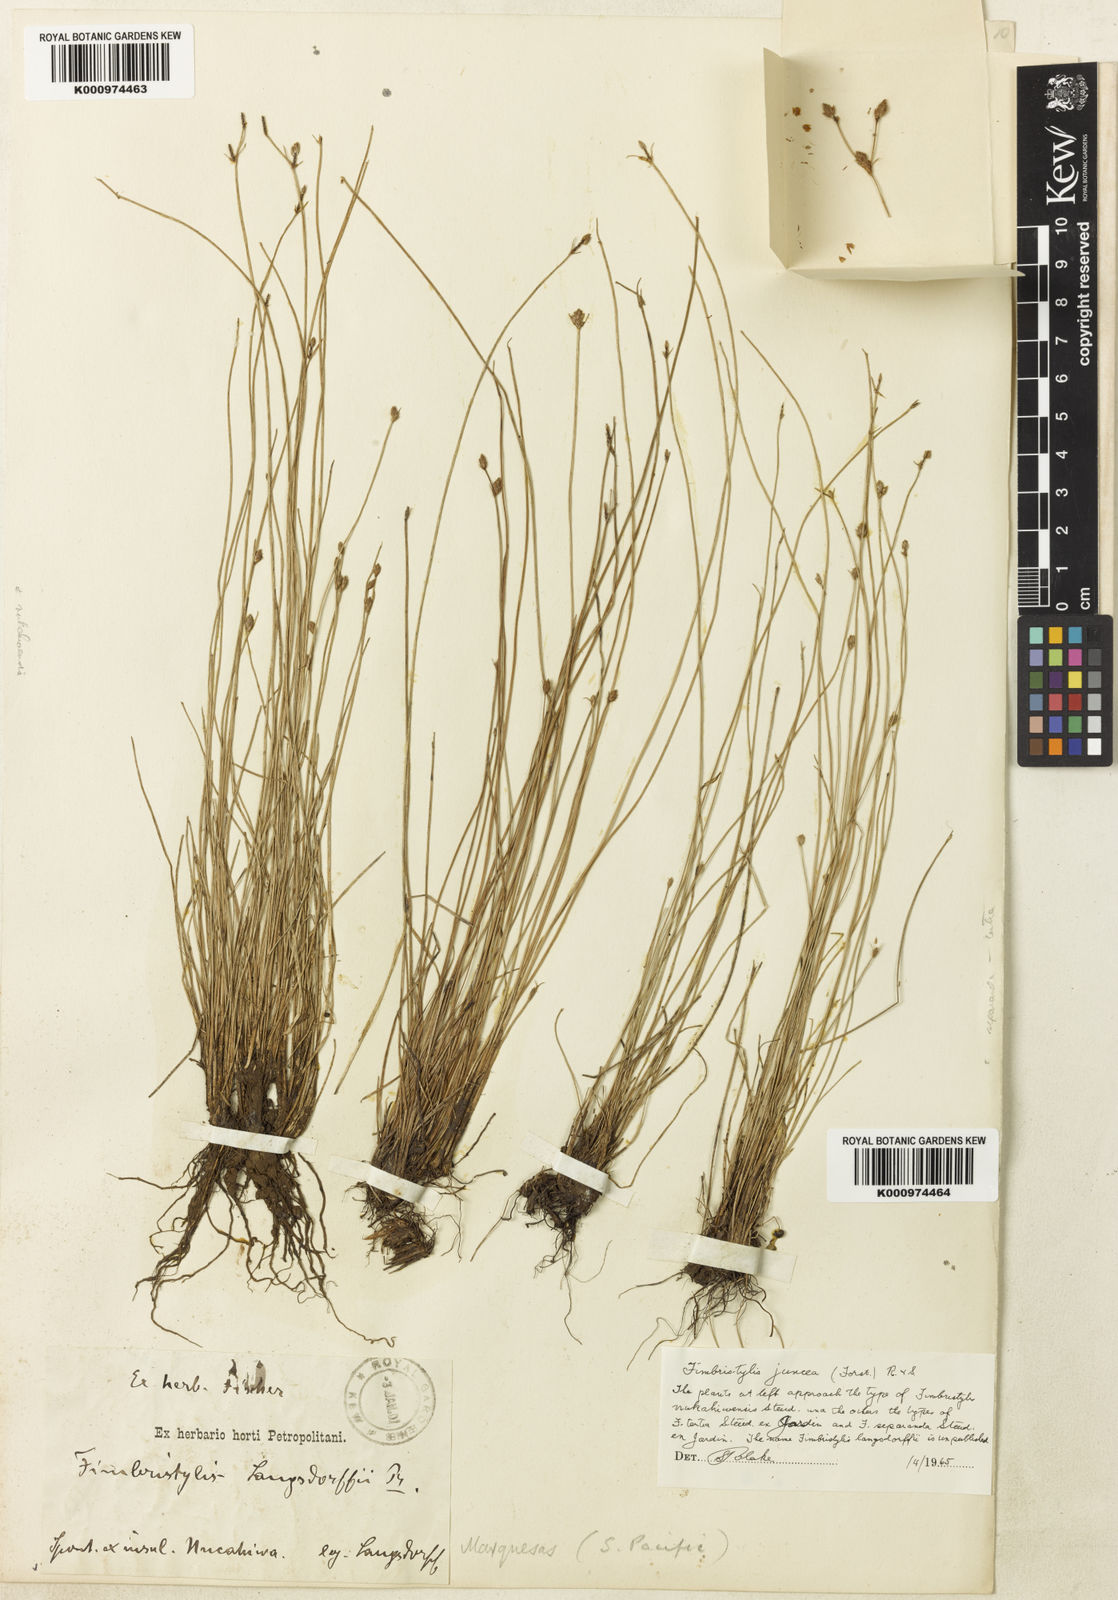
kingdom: Plantae
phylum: Tracheophyta
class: Liliopsida
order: Poales
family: Cyperaceae
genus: Fimbristylis
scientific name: Fimbristylis juncea
